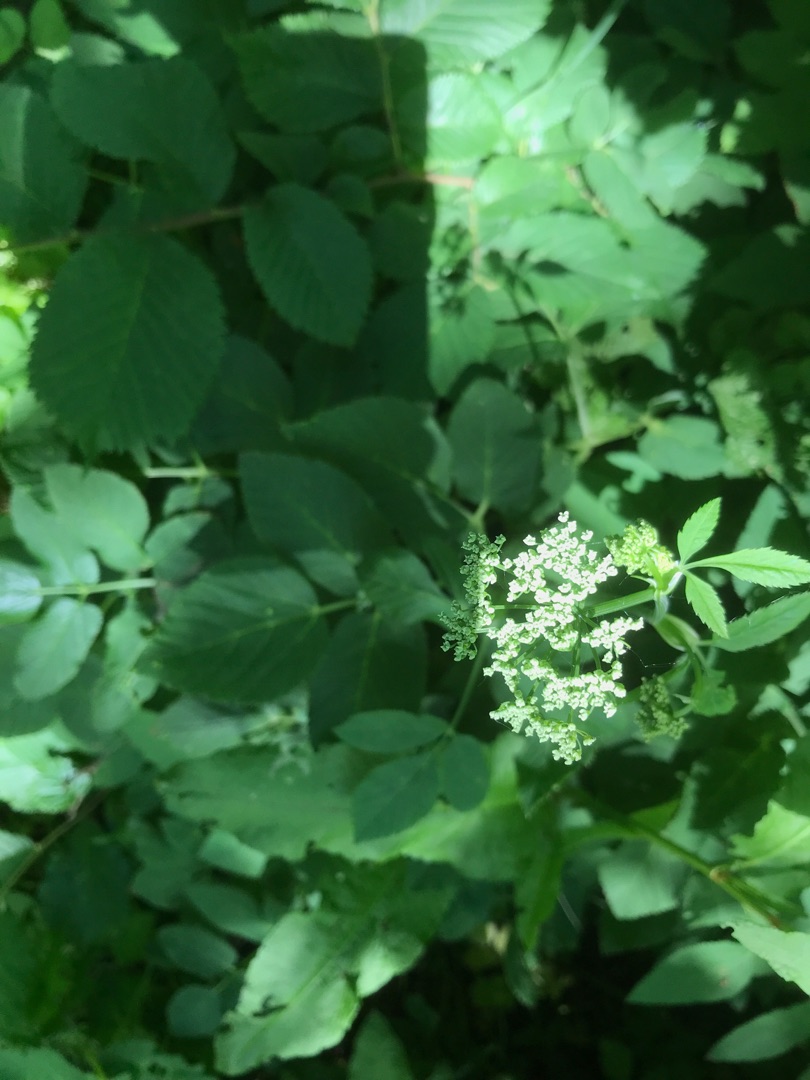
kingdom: Plantae
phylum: Tracheophyta
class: Magnoliopsida
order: Apiales
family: Apiaceae
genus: Aegopodium
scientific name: Aegopodium podagraria
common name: Skvalderkål
